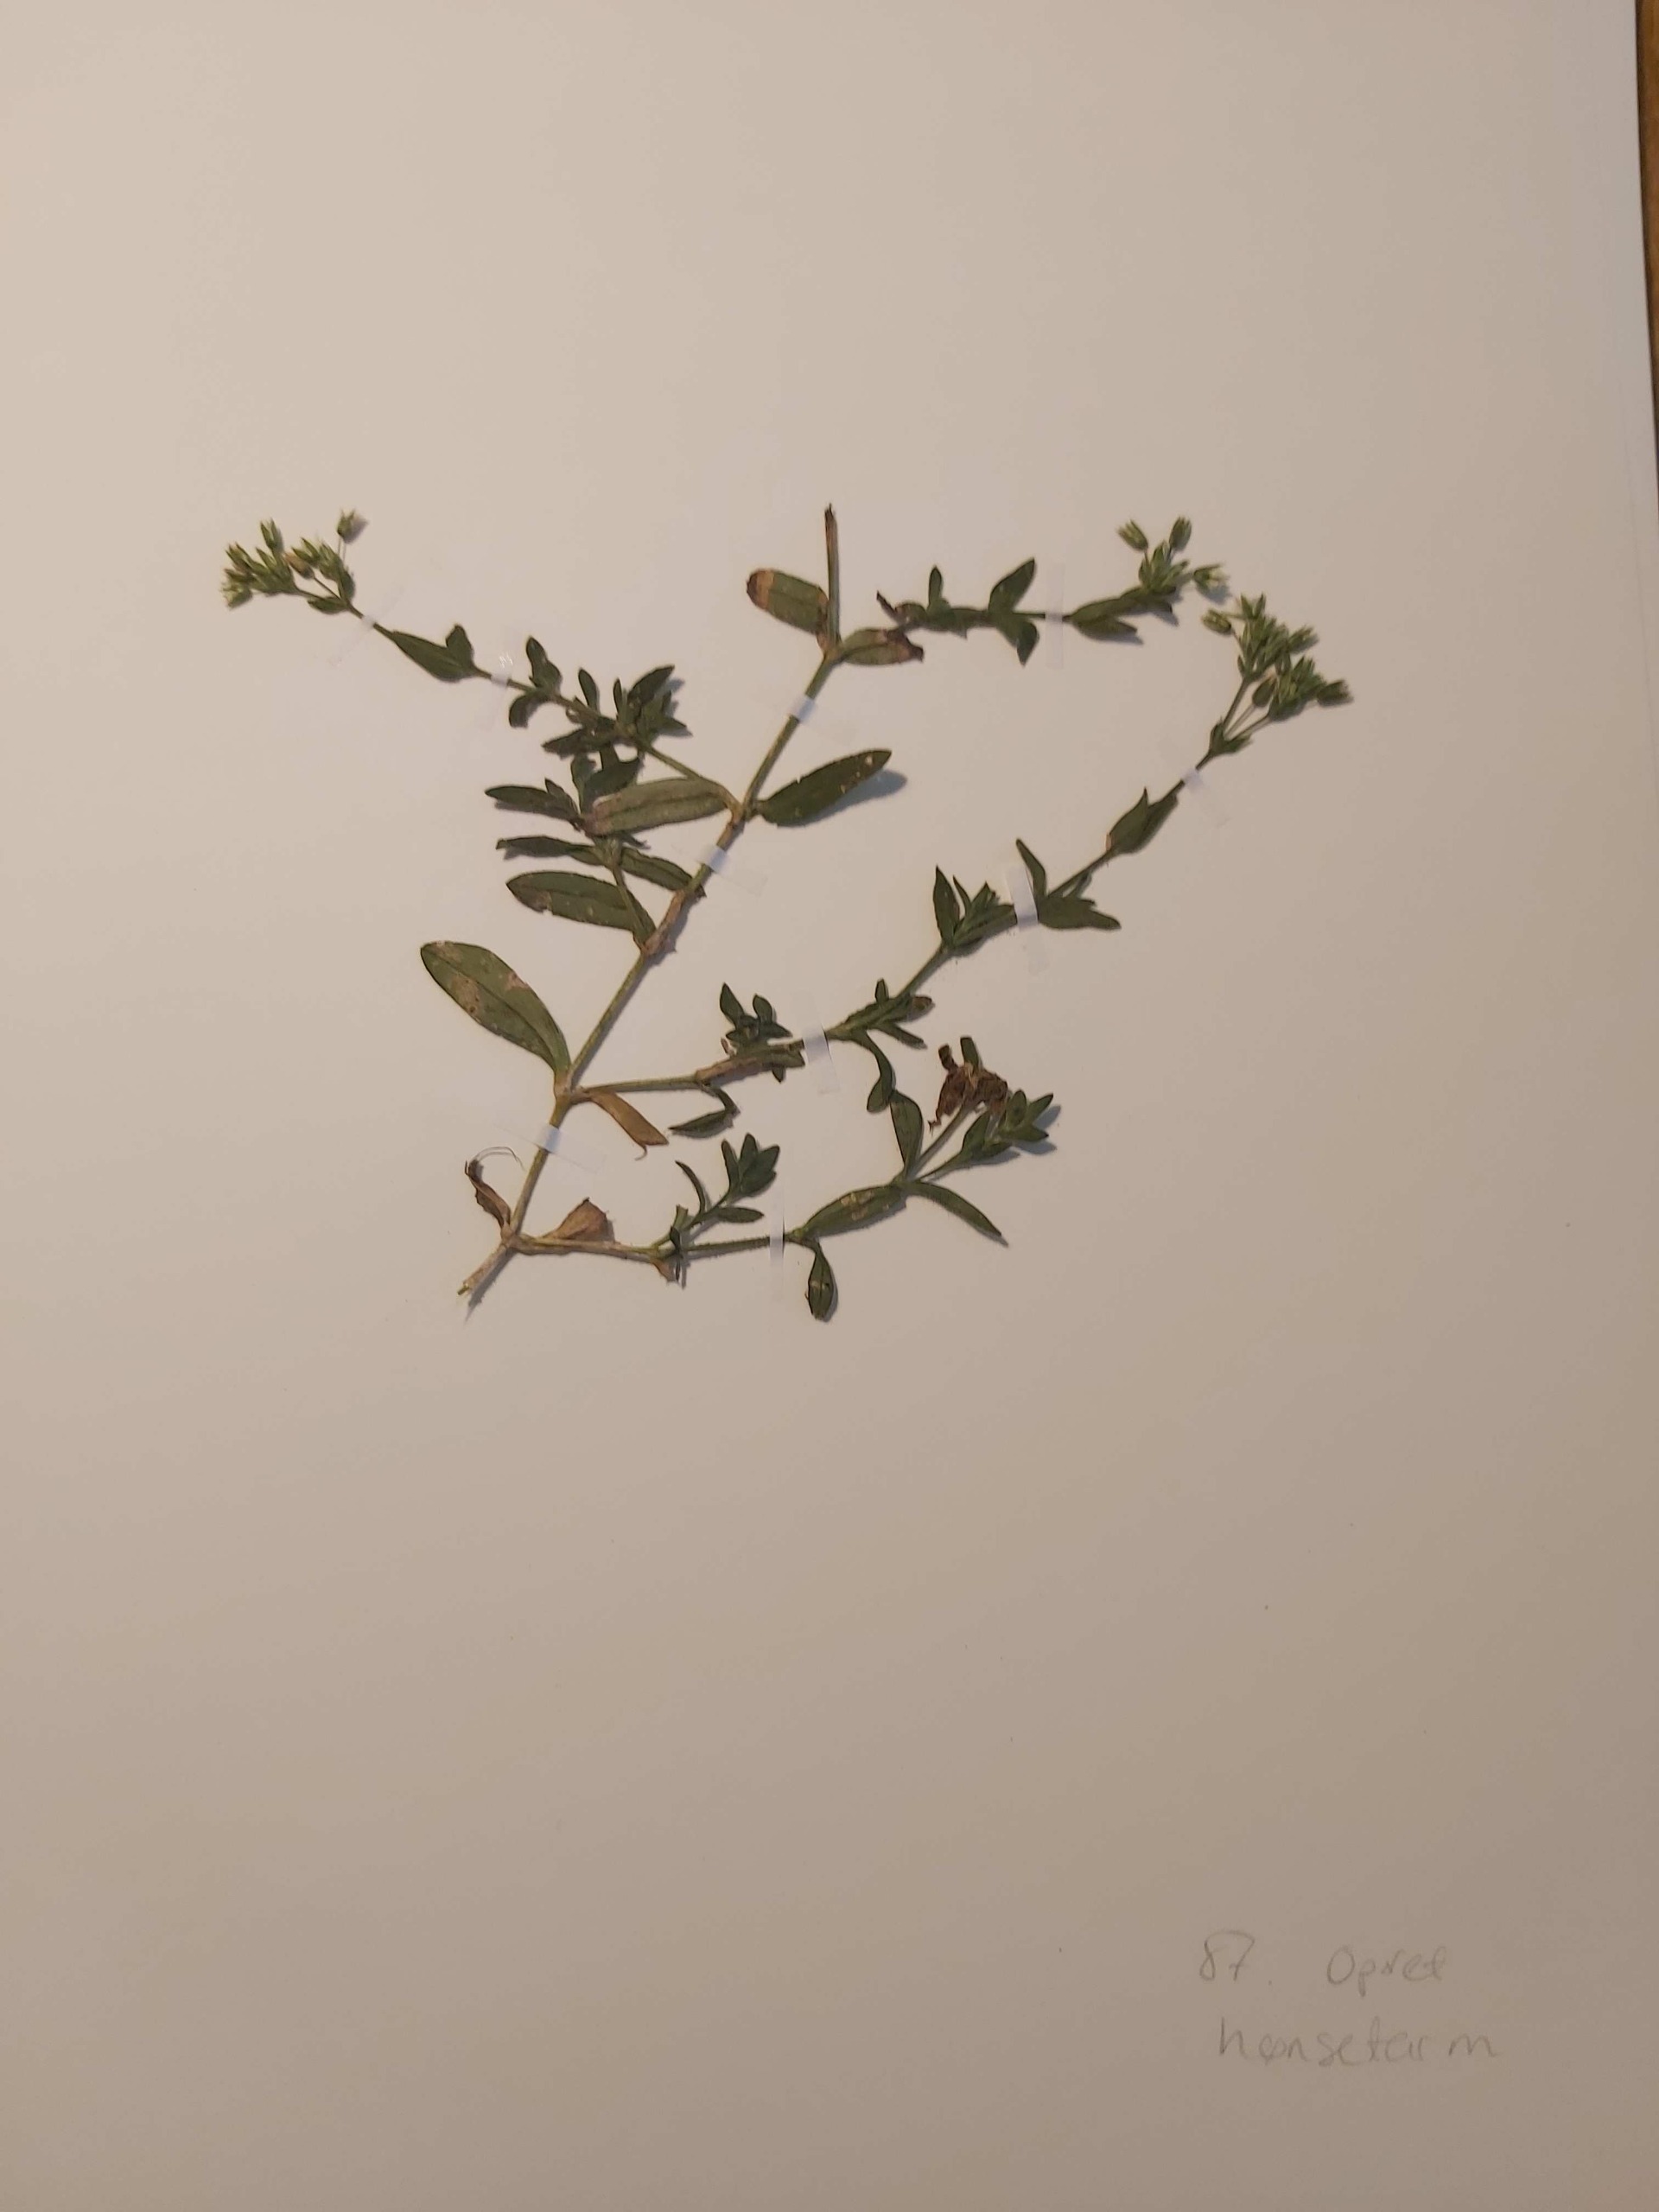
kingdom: Plantae
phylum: Tracheophyta
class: Magnoliopsida
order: Caryophyllales
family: Caryophyllaceae
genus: Cerastium
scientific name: Cerastium fontanum
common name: Almindelig hønsetarm
